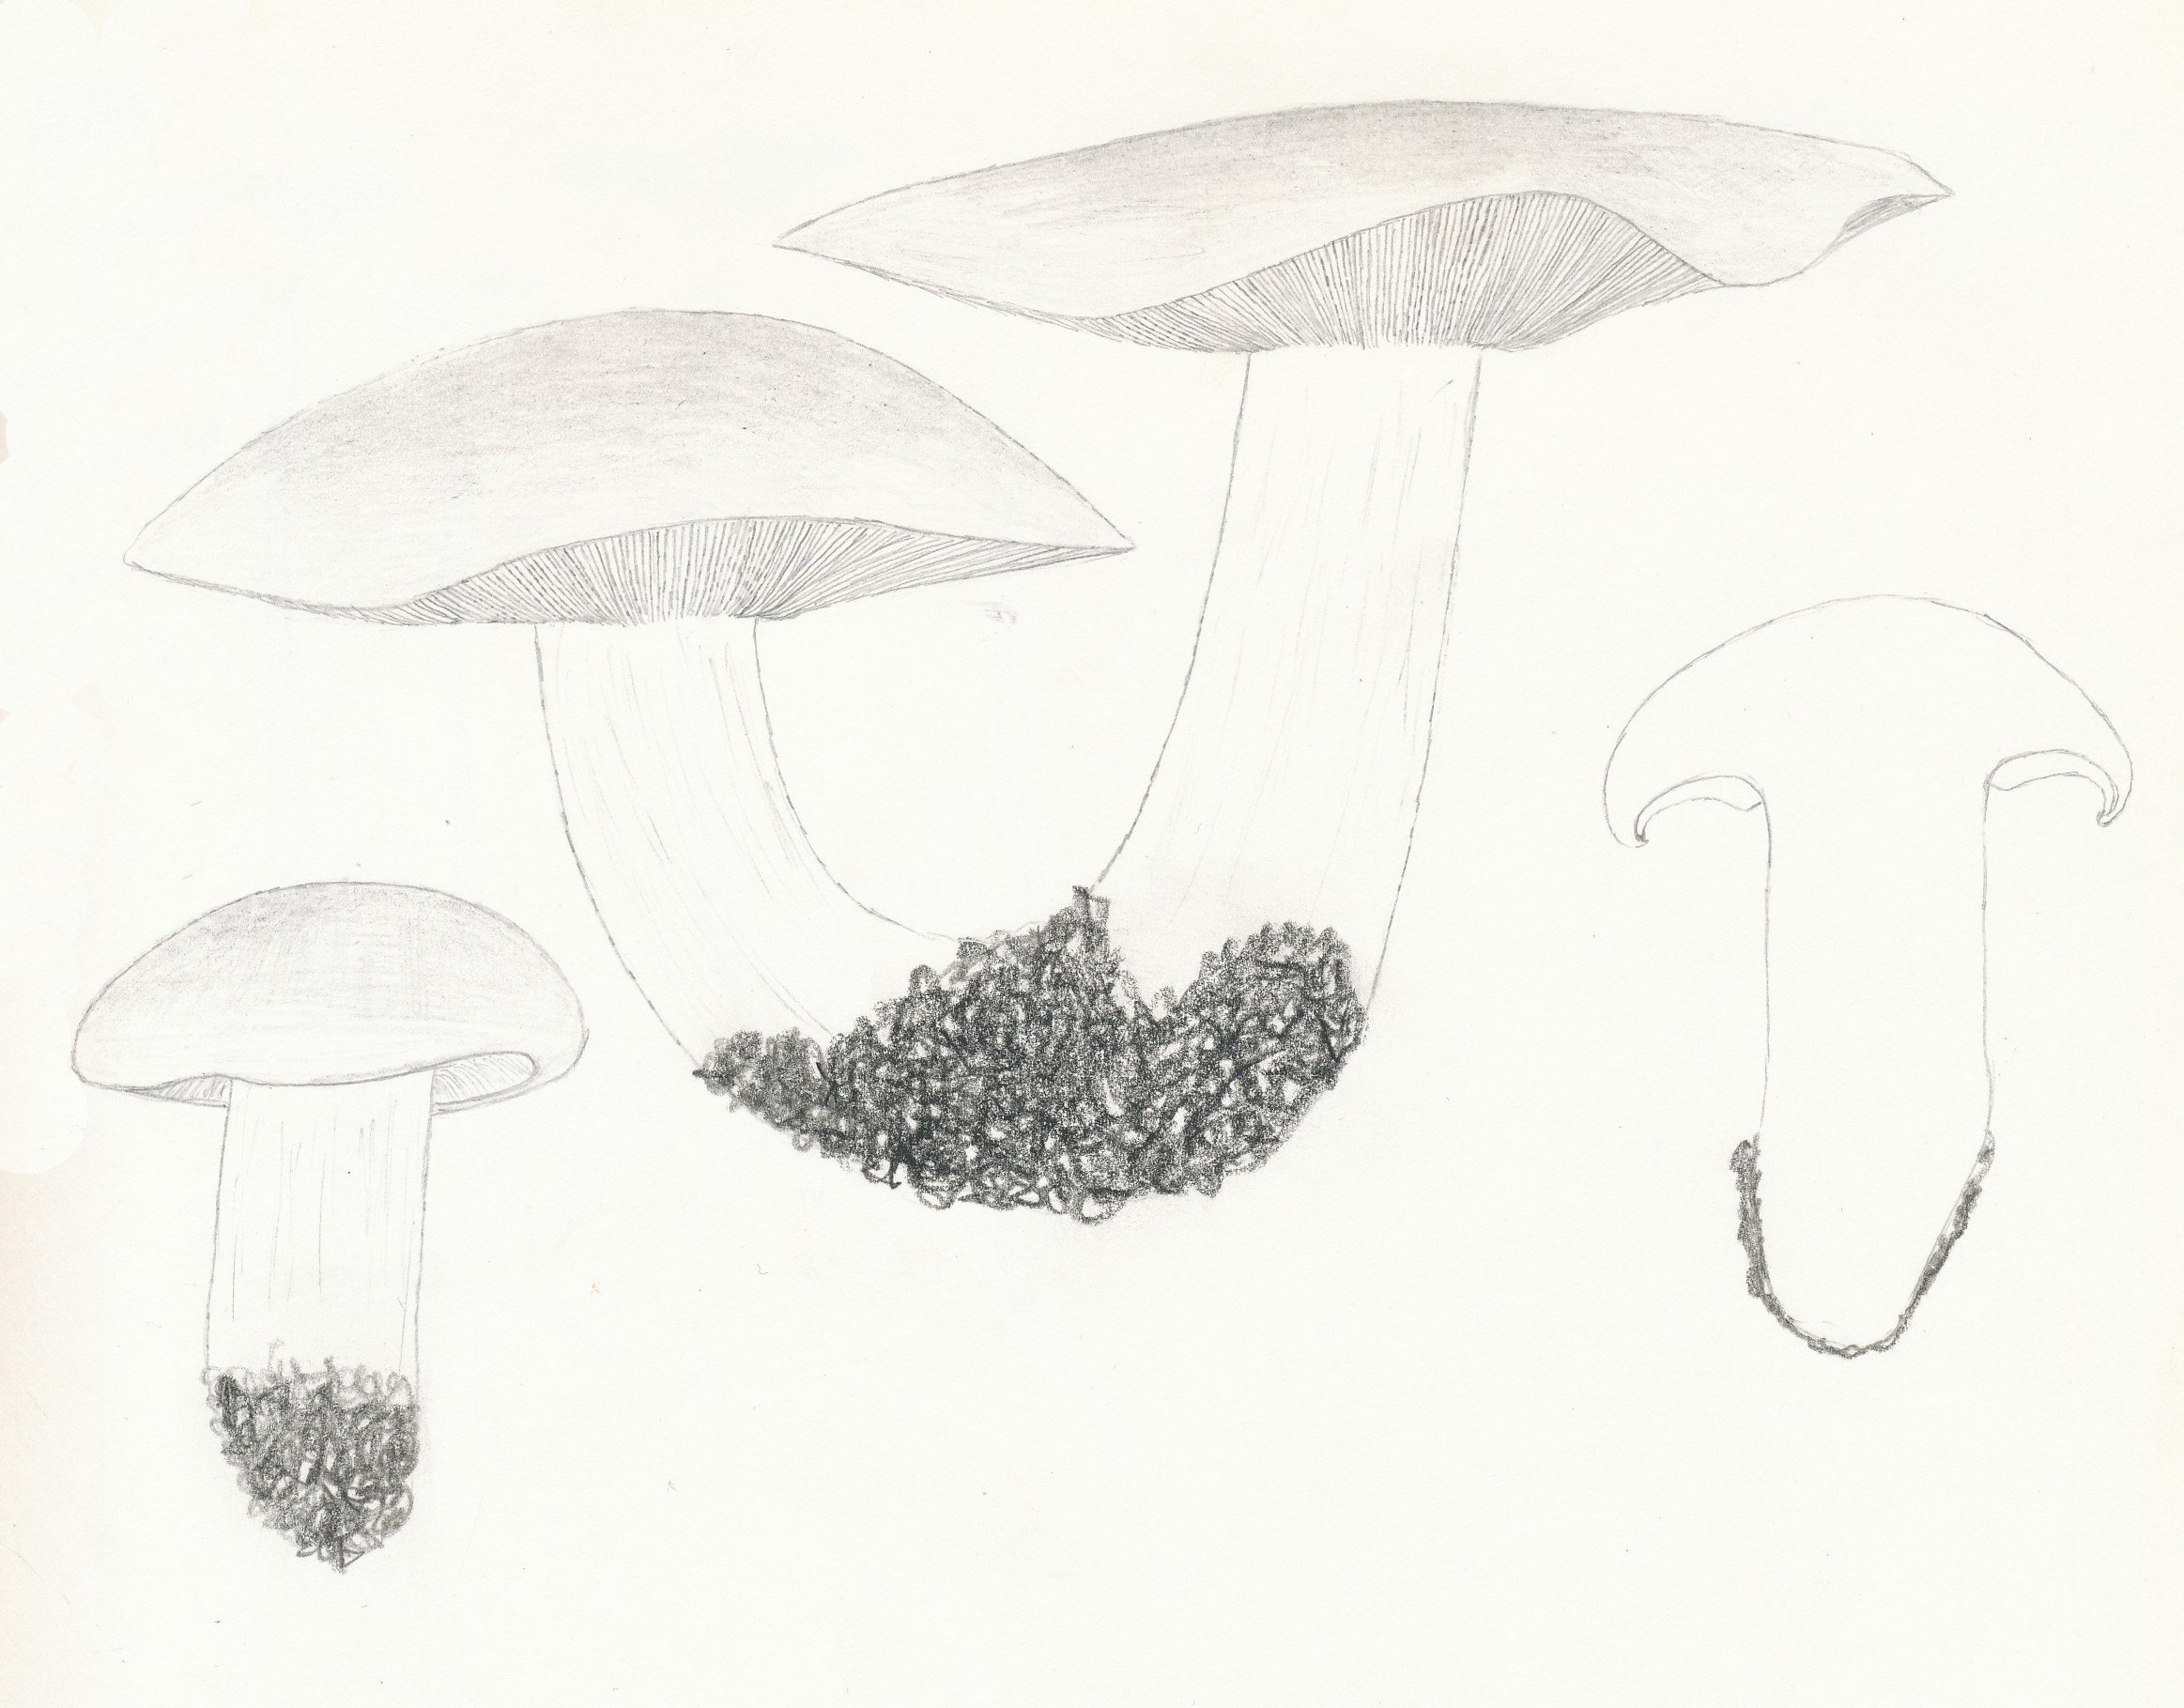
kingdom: Fungi
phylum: Basidiomycota
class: Agaricomycetes
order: Agaricales
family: Lyophyllaceae
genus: Calocybe
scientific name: Calocybe gambosa
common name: vårmusseron
